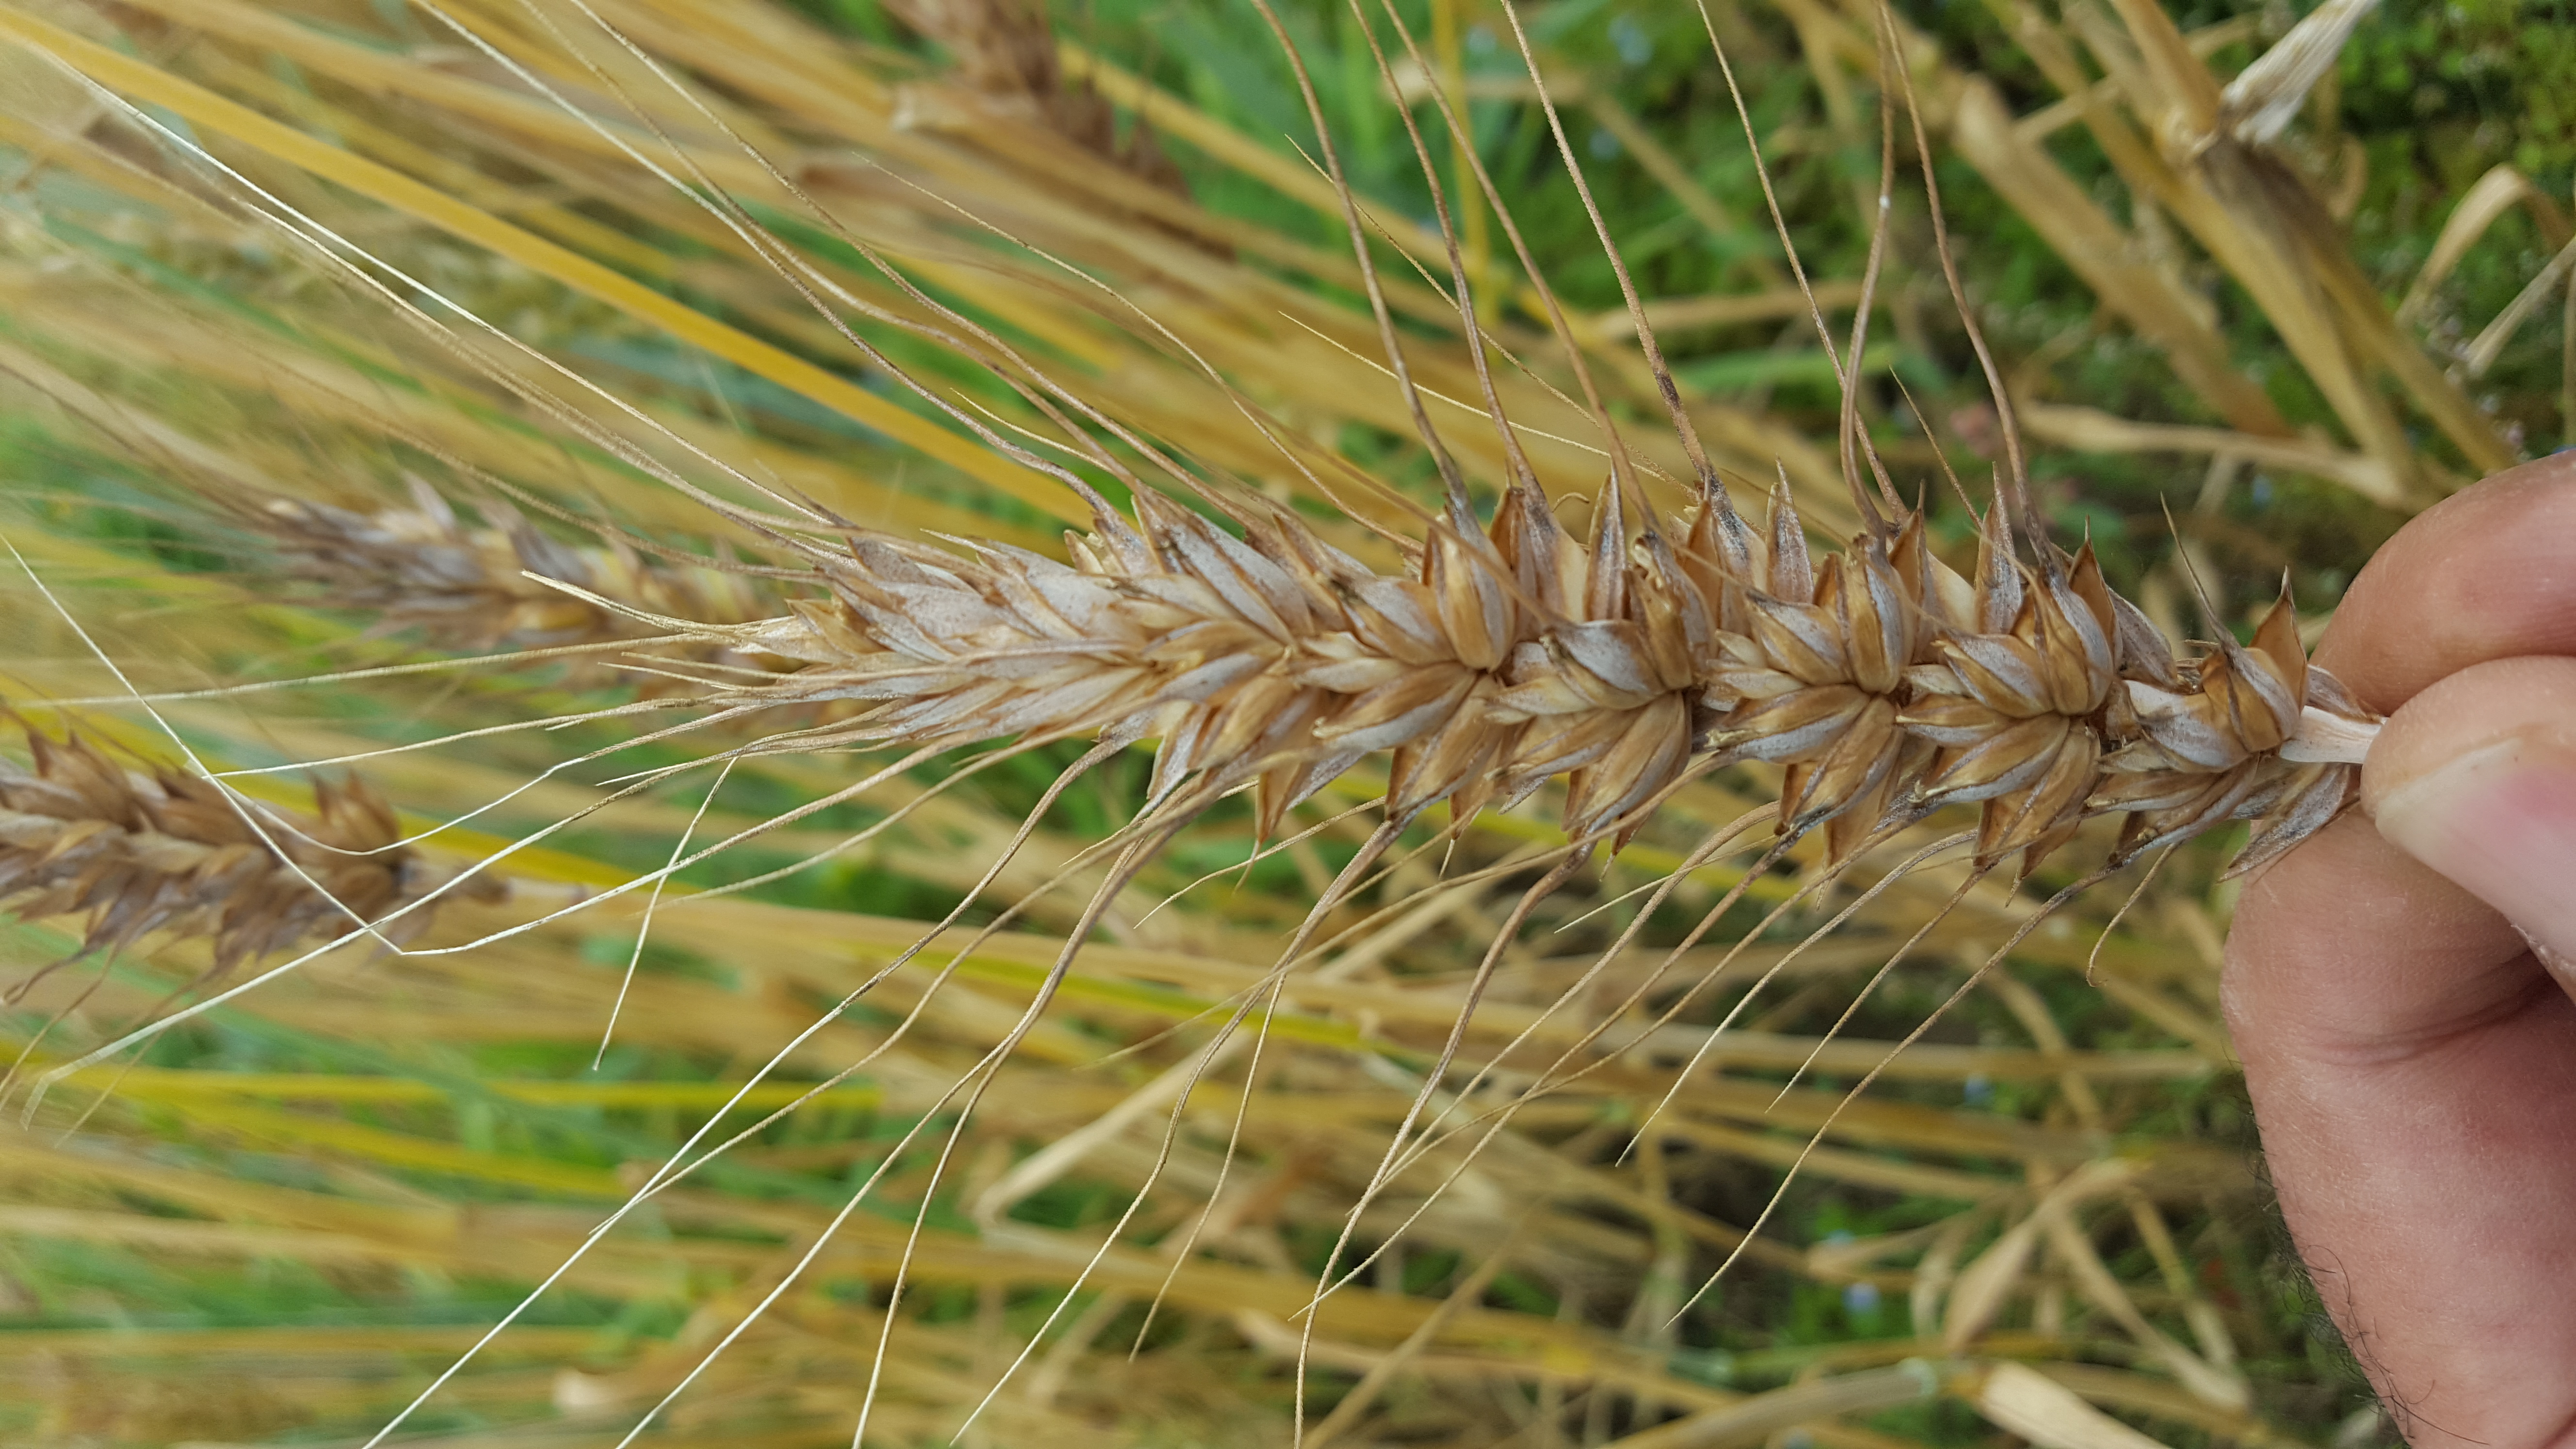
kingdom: Plantae
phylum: Tracheophyta
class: Liliopsida
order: Poales
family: Poaceae
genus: Triticum
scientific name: Triticum aestivum
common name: Common wheat
